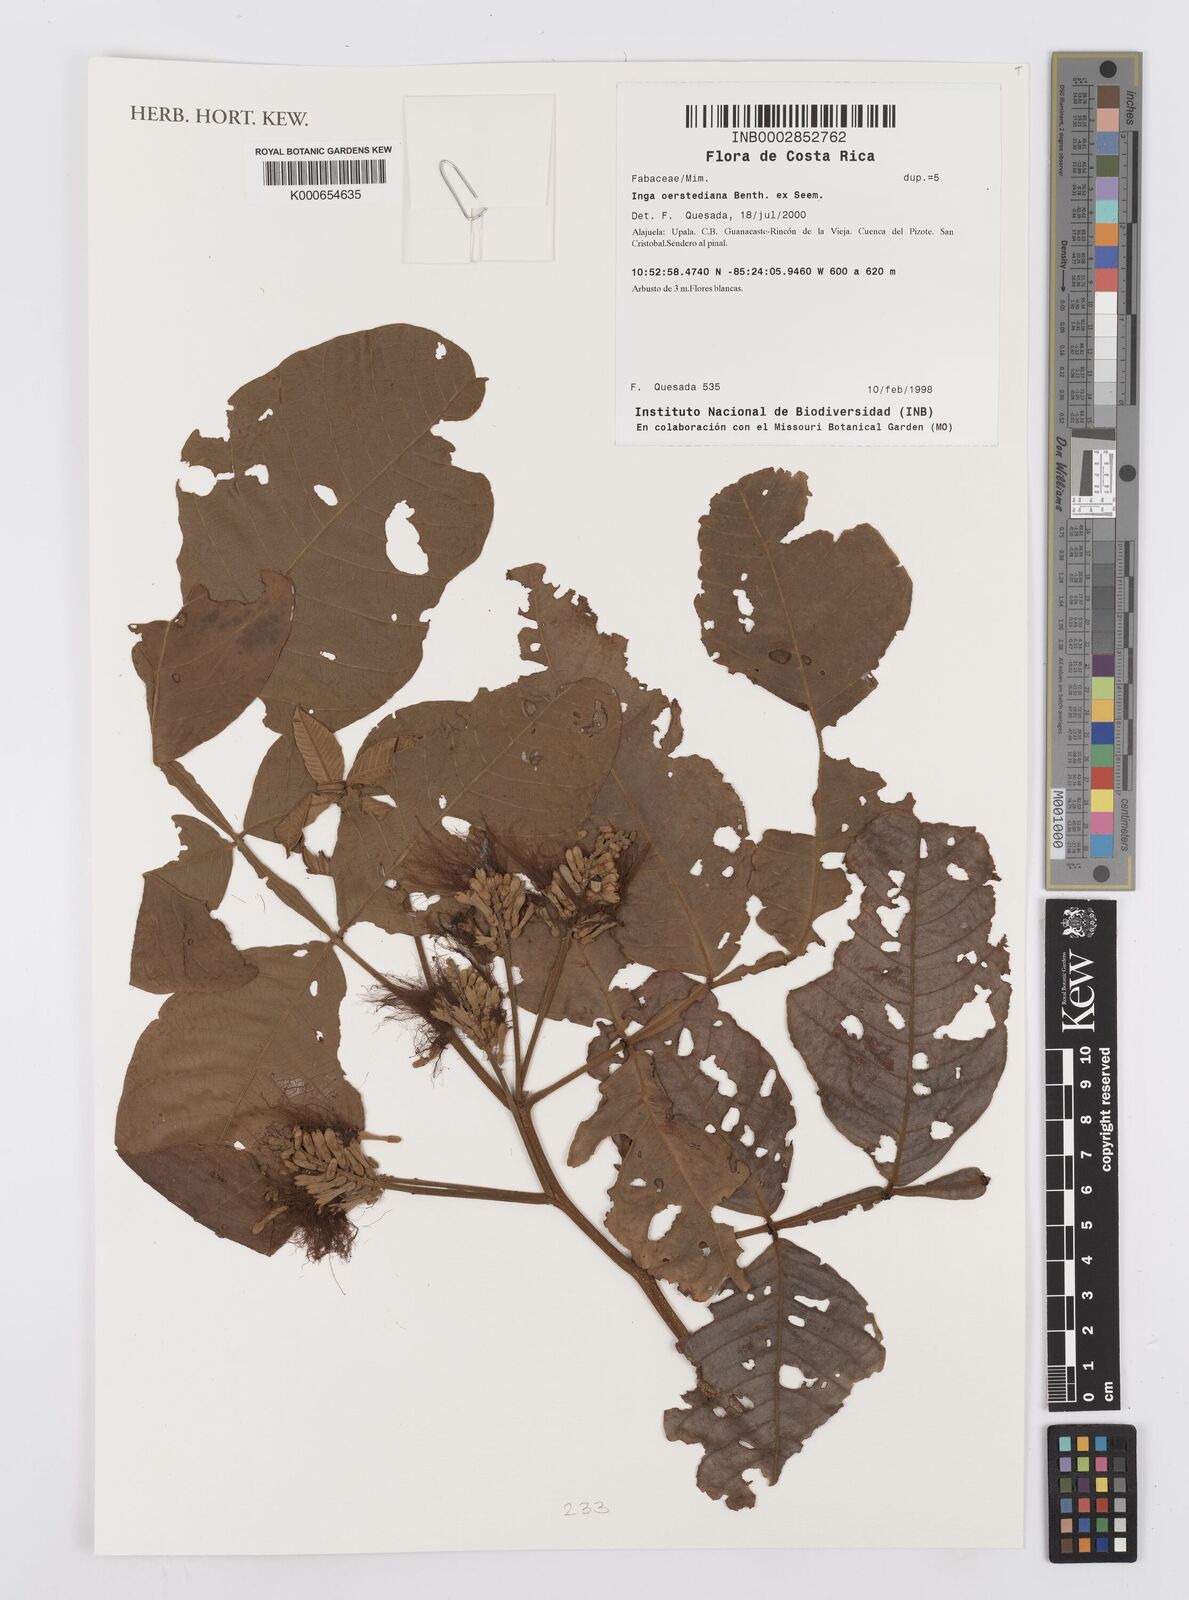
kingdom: Plantae
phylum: Tracheophyta
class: Magnoliopsida
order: Fabales
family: Fabaceae
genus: Inga
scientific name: Inga oerstediana
